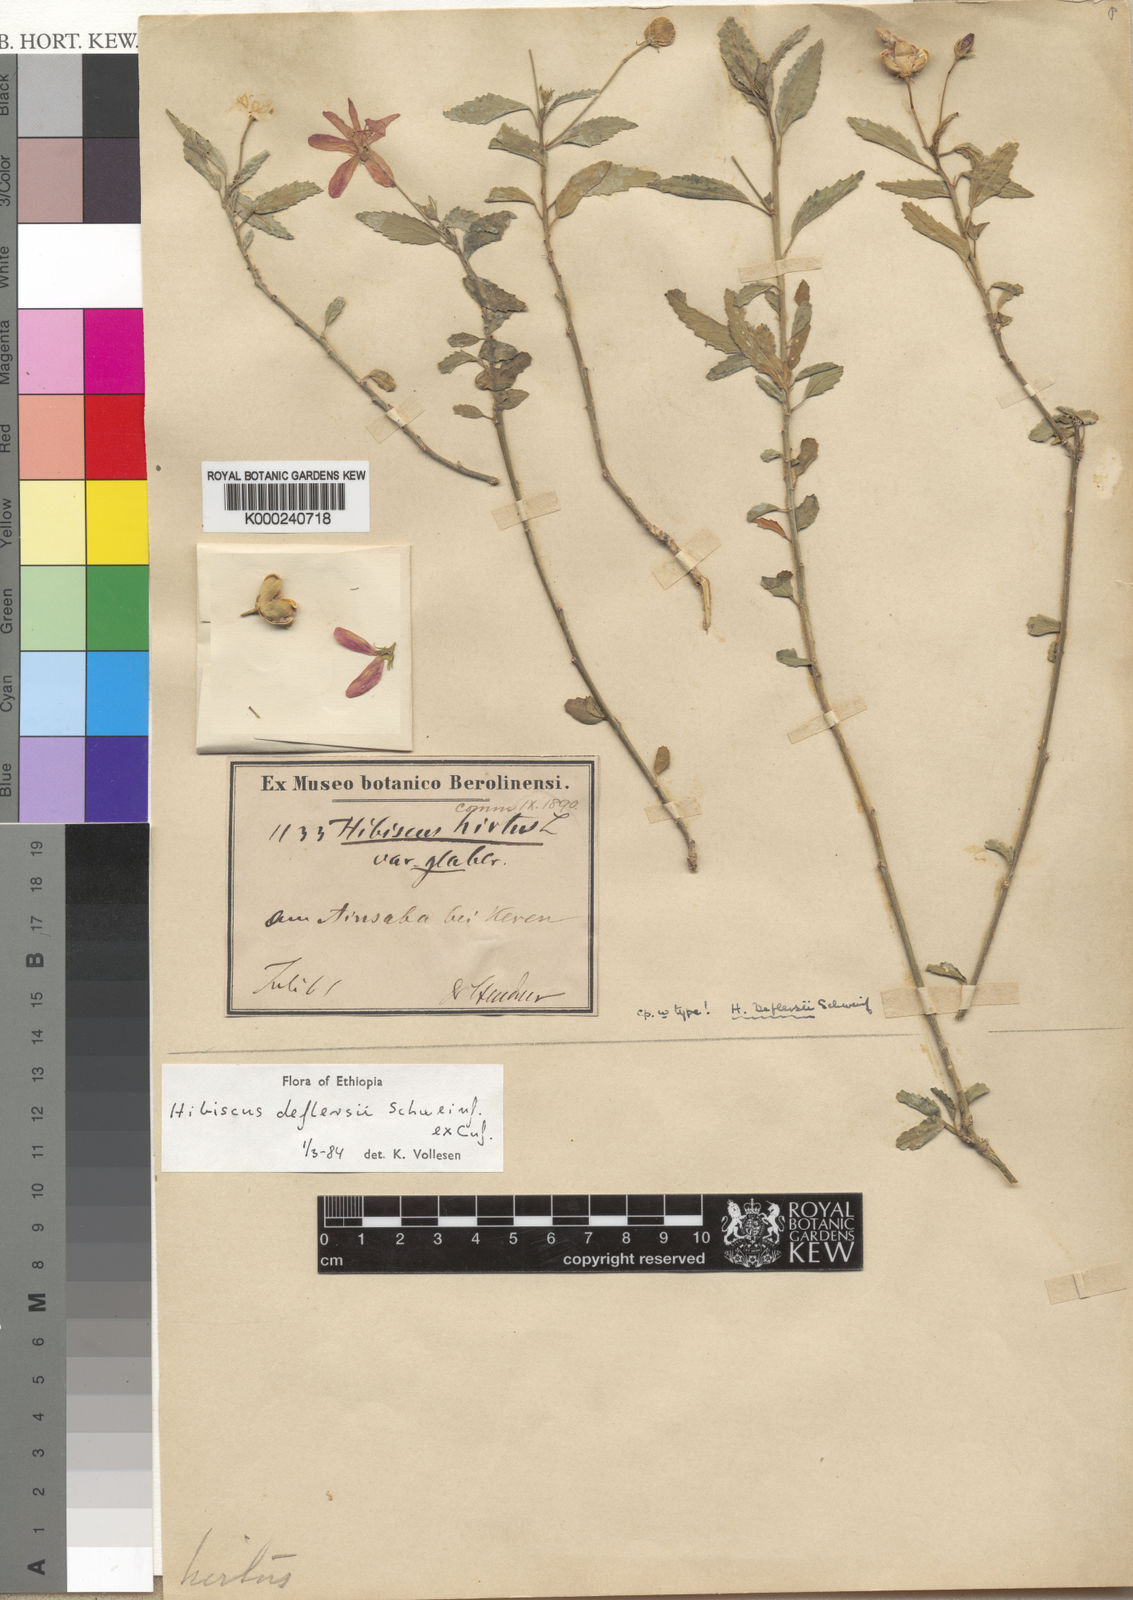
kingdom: Plantae
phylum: Tracheophyta
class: Magnoliopsida
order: Malvales
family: Malvaceae
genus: Hibiscus
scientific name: Hibiscus deflersii
